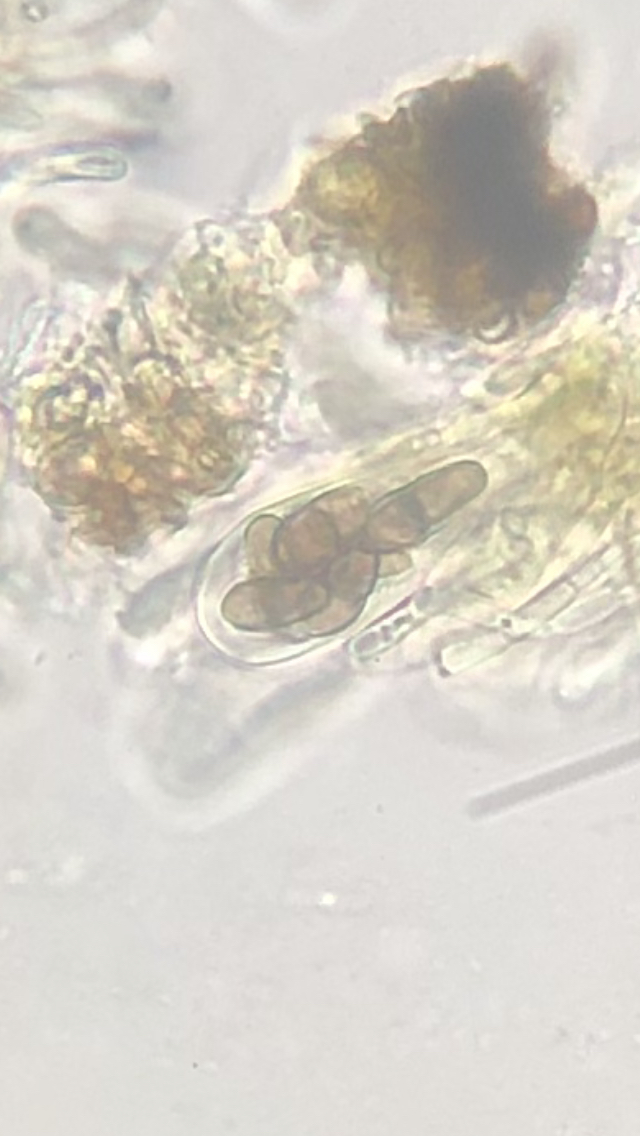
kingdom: Fungi
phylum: Ascomycota
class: Dothideomycetes
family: Rhizodiscinaceae
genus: Rhizodiscina
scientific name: Rhizodiscina lignyota
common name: almindelig begskive
